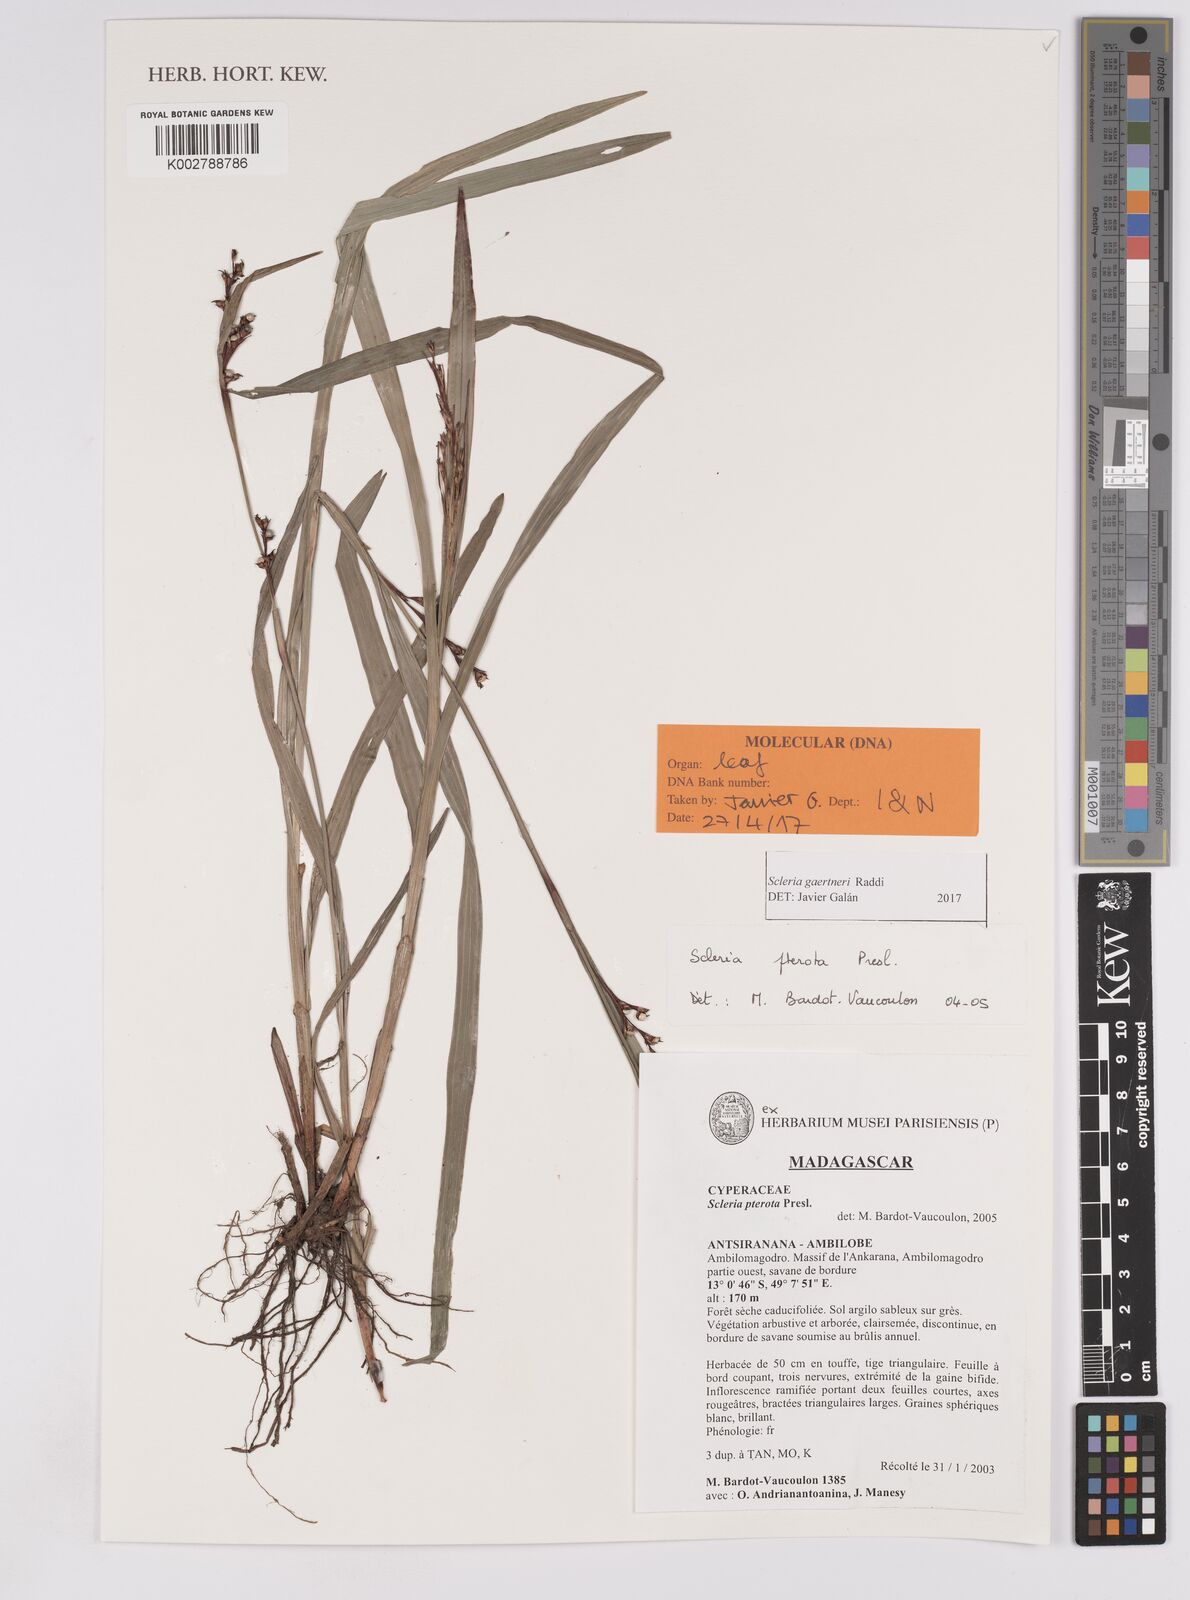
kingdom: Plantae
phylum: Tracheophyta
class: Liliopsida
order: Poales
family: Cyperaceae
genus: Scleria
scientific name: Scleria gaertneri
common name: Cortadera blanca
